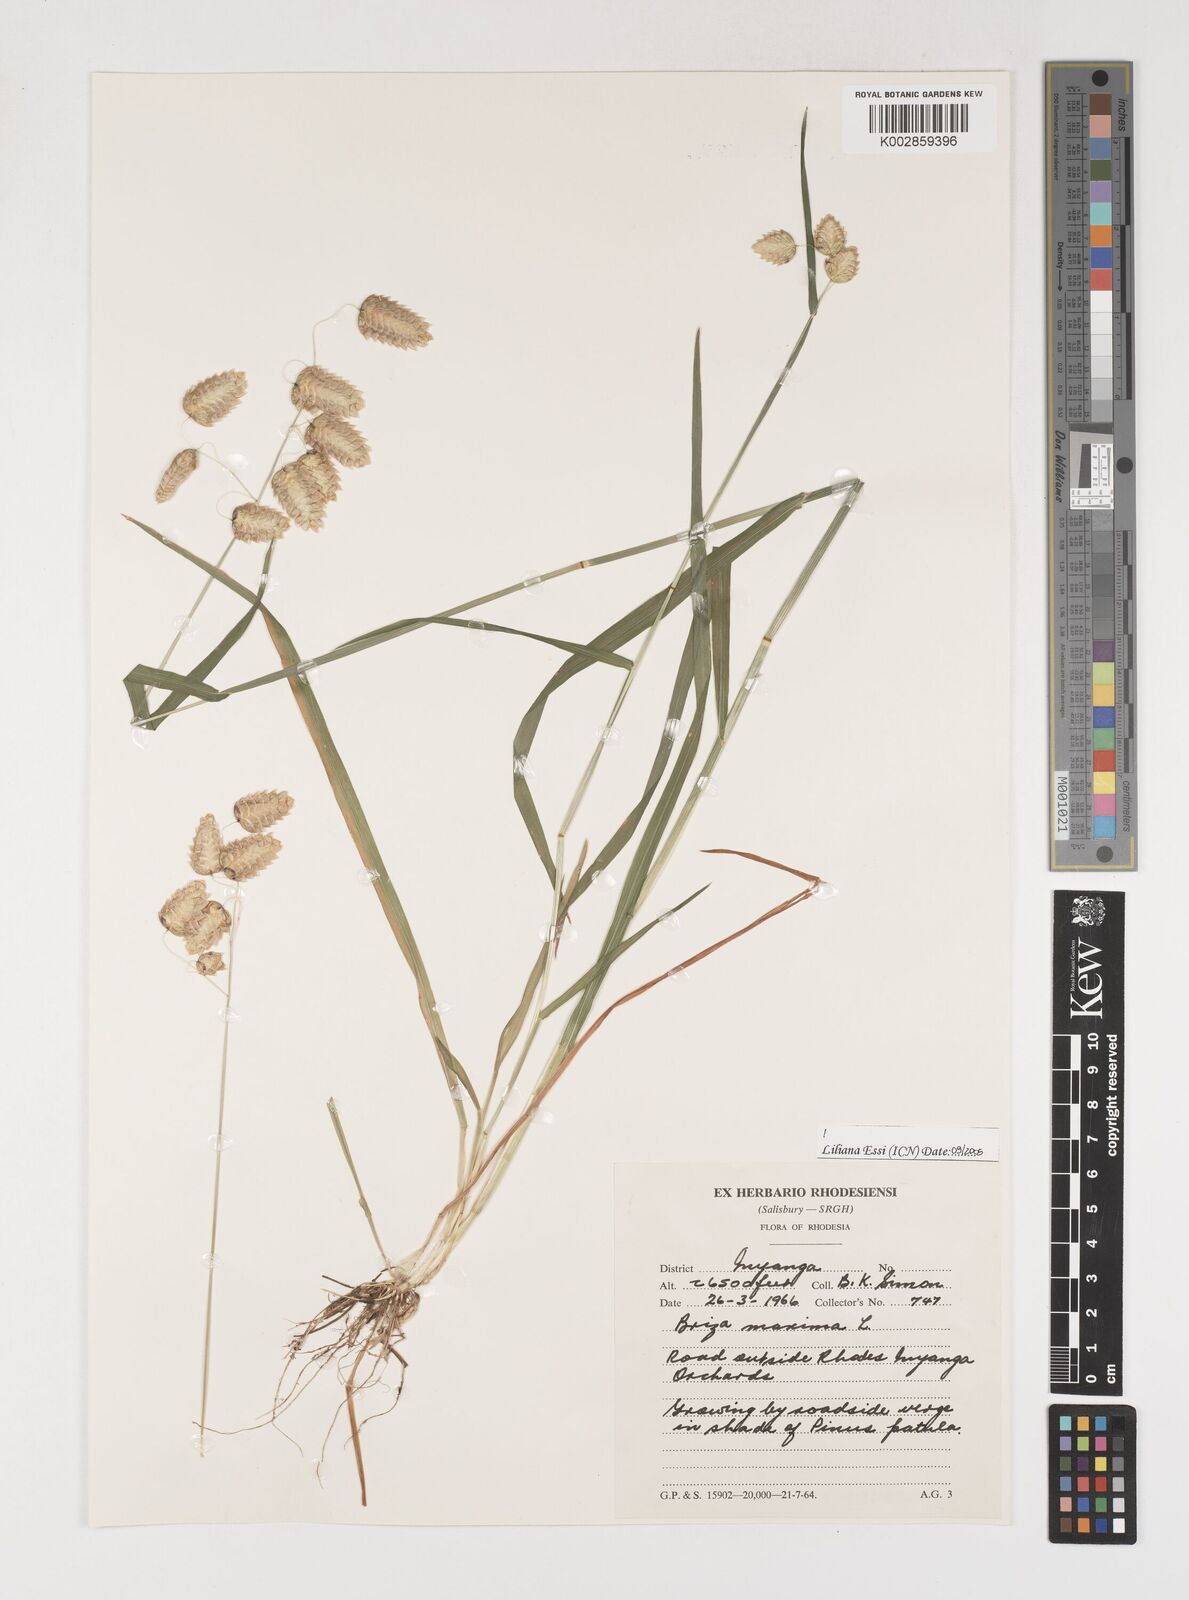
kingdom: Plantae
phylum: Tracheophyta
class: Liliopsida
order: Poales
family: Poaceae
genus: Briza
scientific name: Briza maxima
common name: Big quakinggrass
